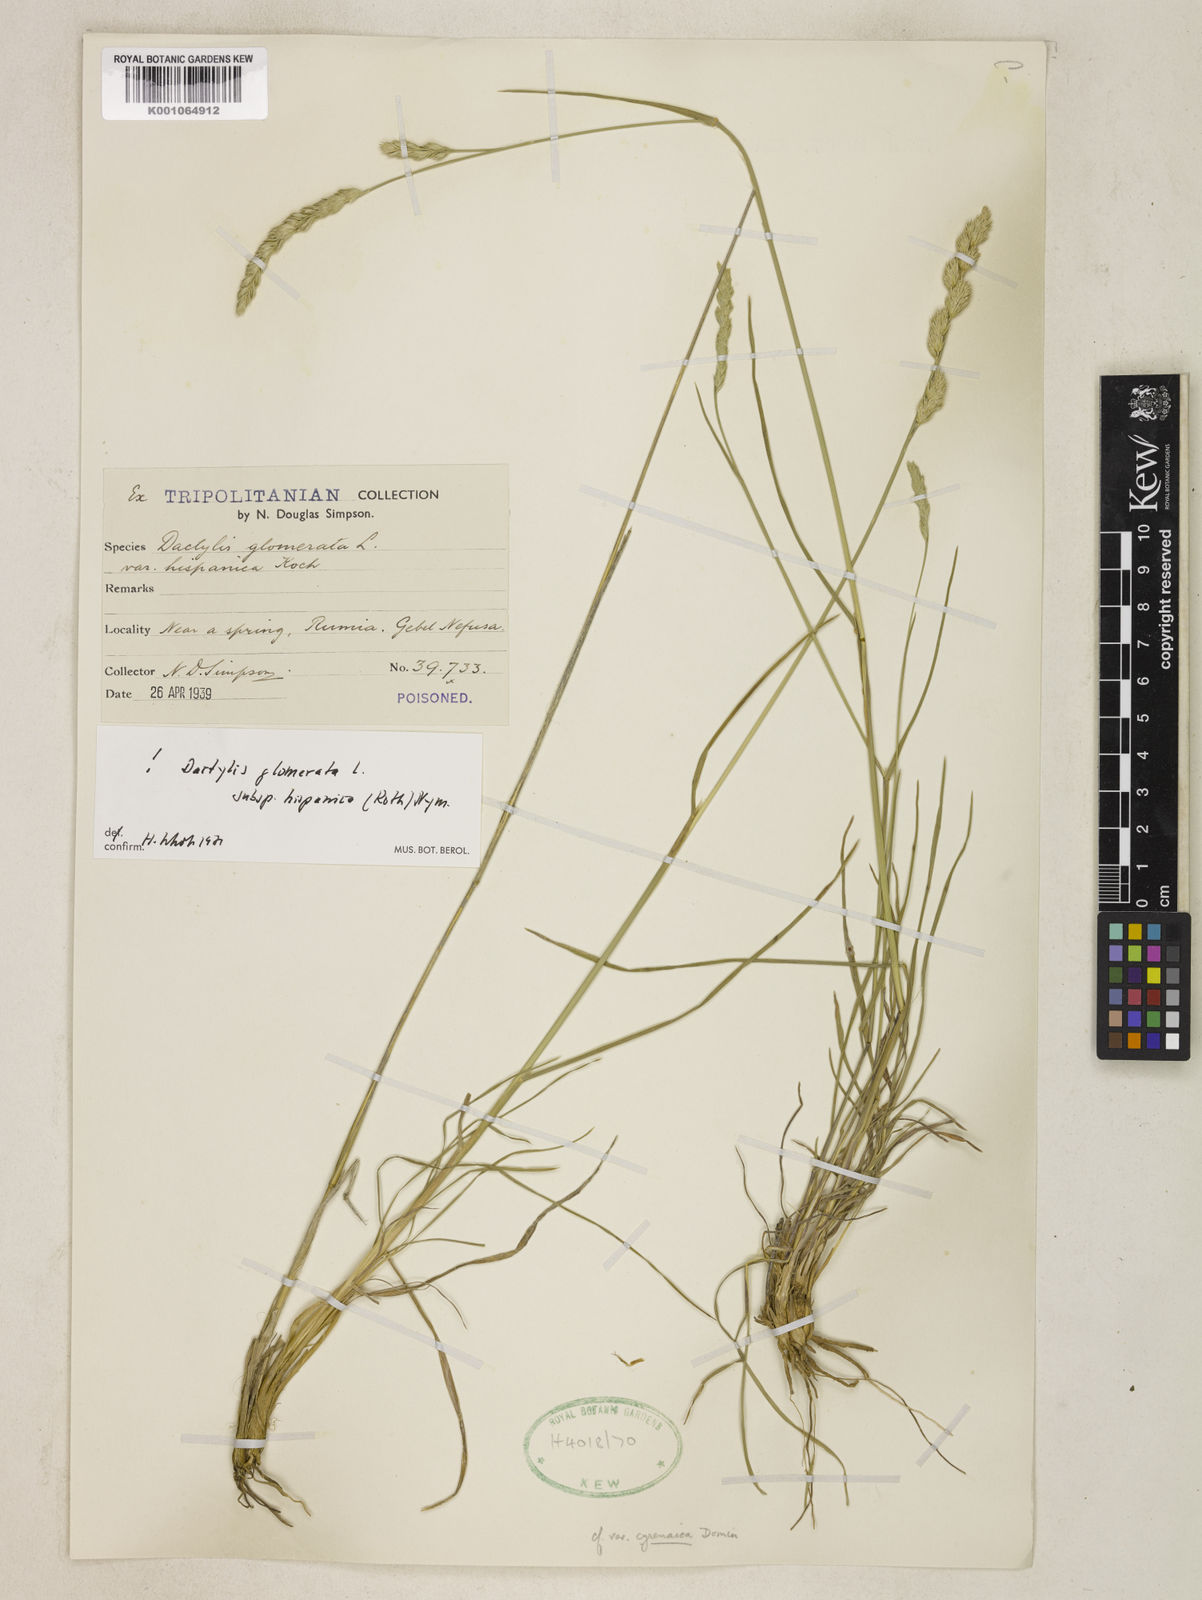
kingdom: Plantae
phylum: Tracheophyta
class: Liliopsida
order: Poales
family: Poaceae
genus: Dactylis
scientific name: Dactylis glomerata
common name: Orchardgrass
